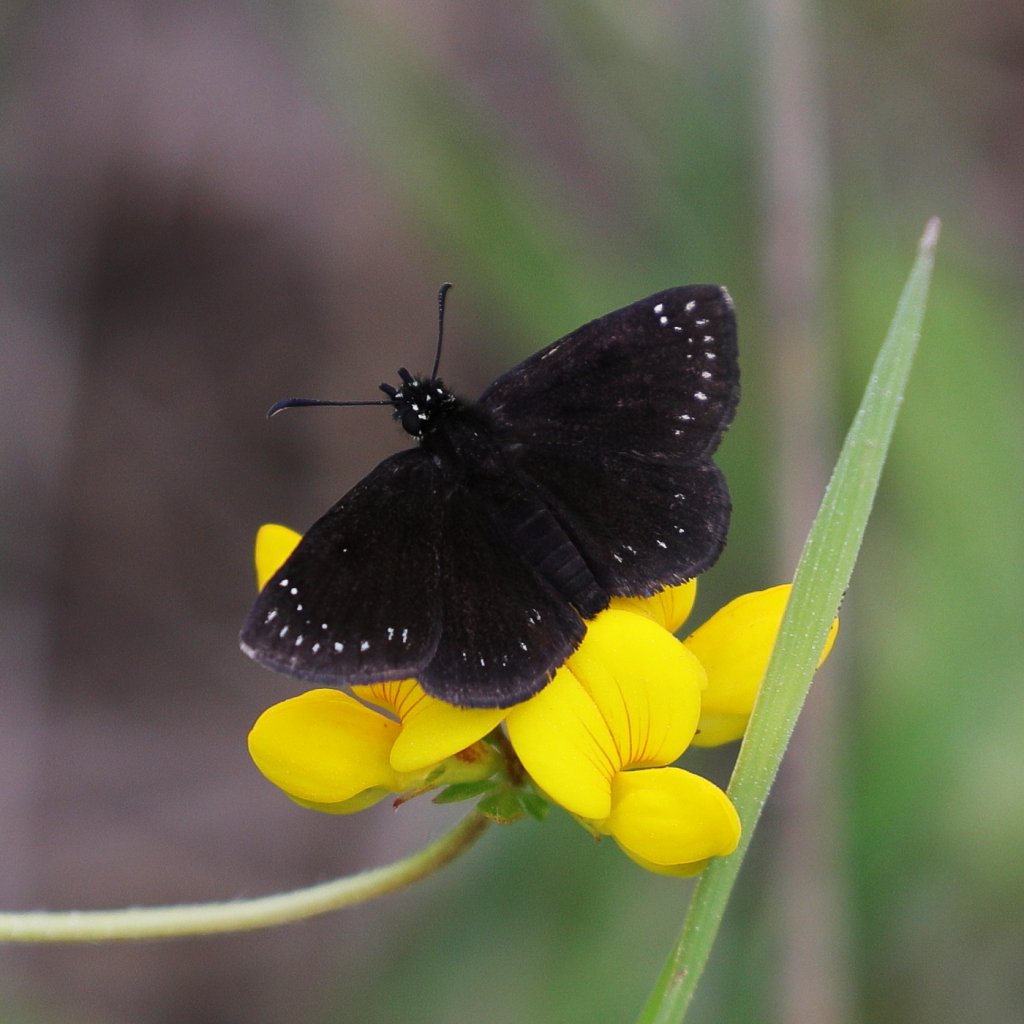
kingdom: Animalia
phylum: Arthropoda
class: Insecta
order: Lepidoptera
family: Hesperiidae
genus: Pholisora
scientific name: Pholisora catullus
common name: Common Sootywing
